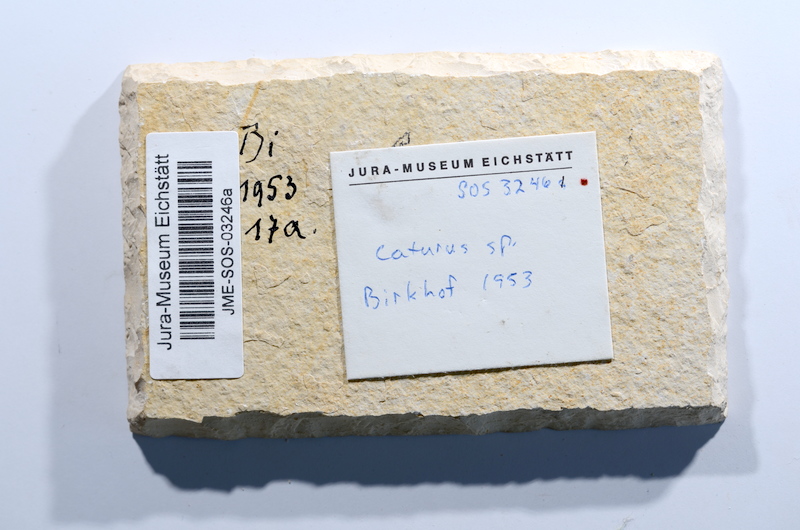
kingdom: Animalia
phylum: Chordata
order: Amiiformes
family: Caturidae
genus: Caturus
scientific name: Caturus furcatus
